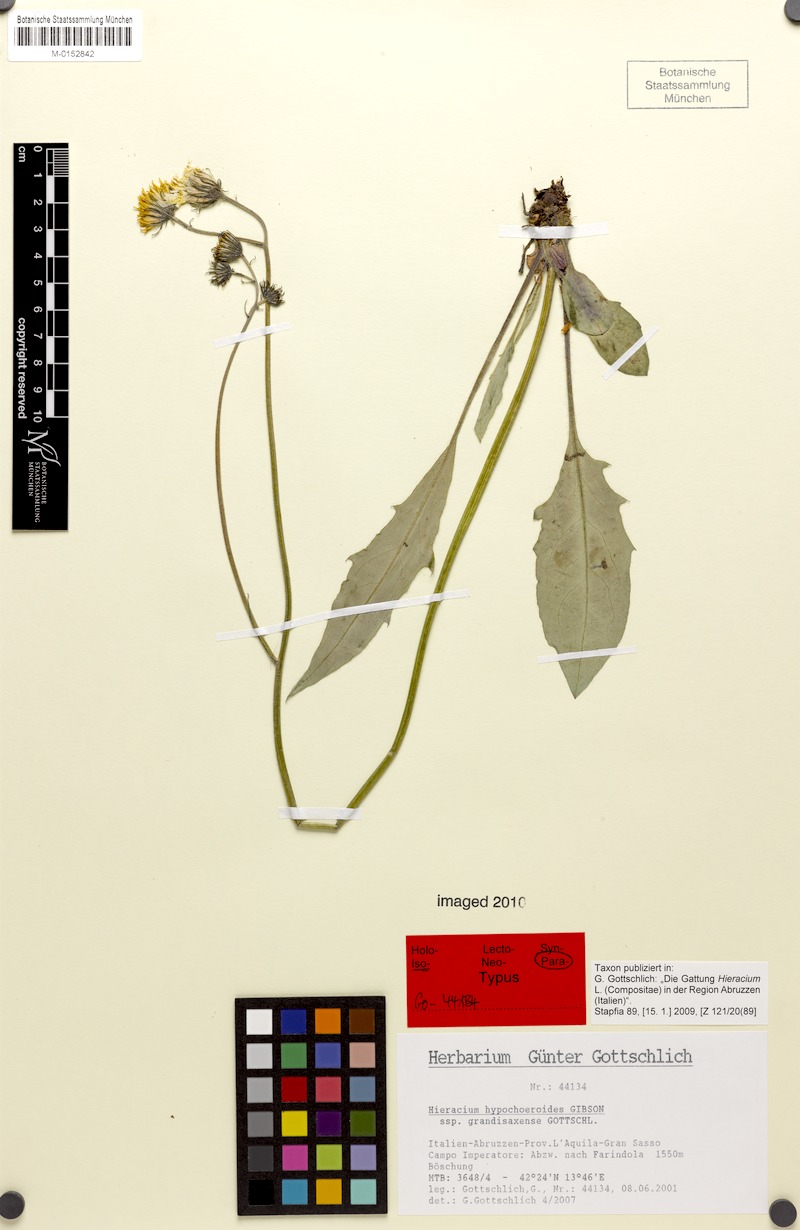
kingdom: Plantae
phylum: Tracheophyta
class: Magnoliopsida
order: Asterales
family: Asteraceae
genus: Hieracium
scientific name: Hieracium hypochoeroides
